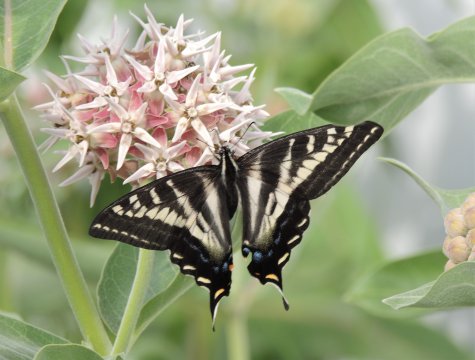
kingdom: Animalia
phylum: Arthropoda
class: Insecta
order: Lepidoptera
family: Papilionidae
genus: Pterourus
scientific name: Pterourus eurymedon
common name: Pale Swallowtail
